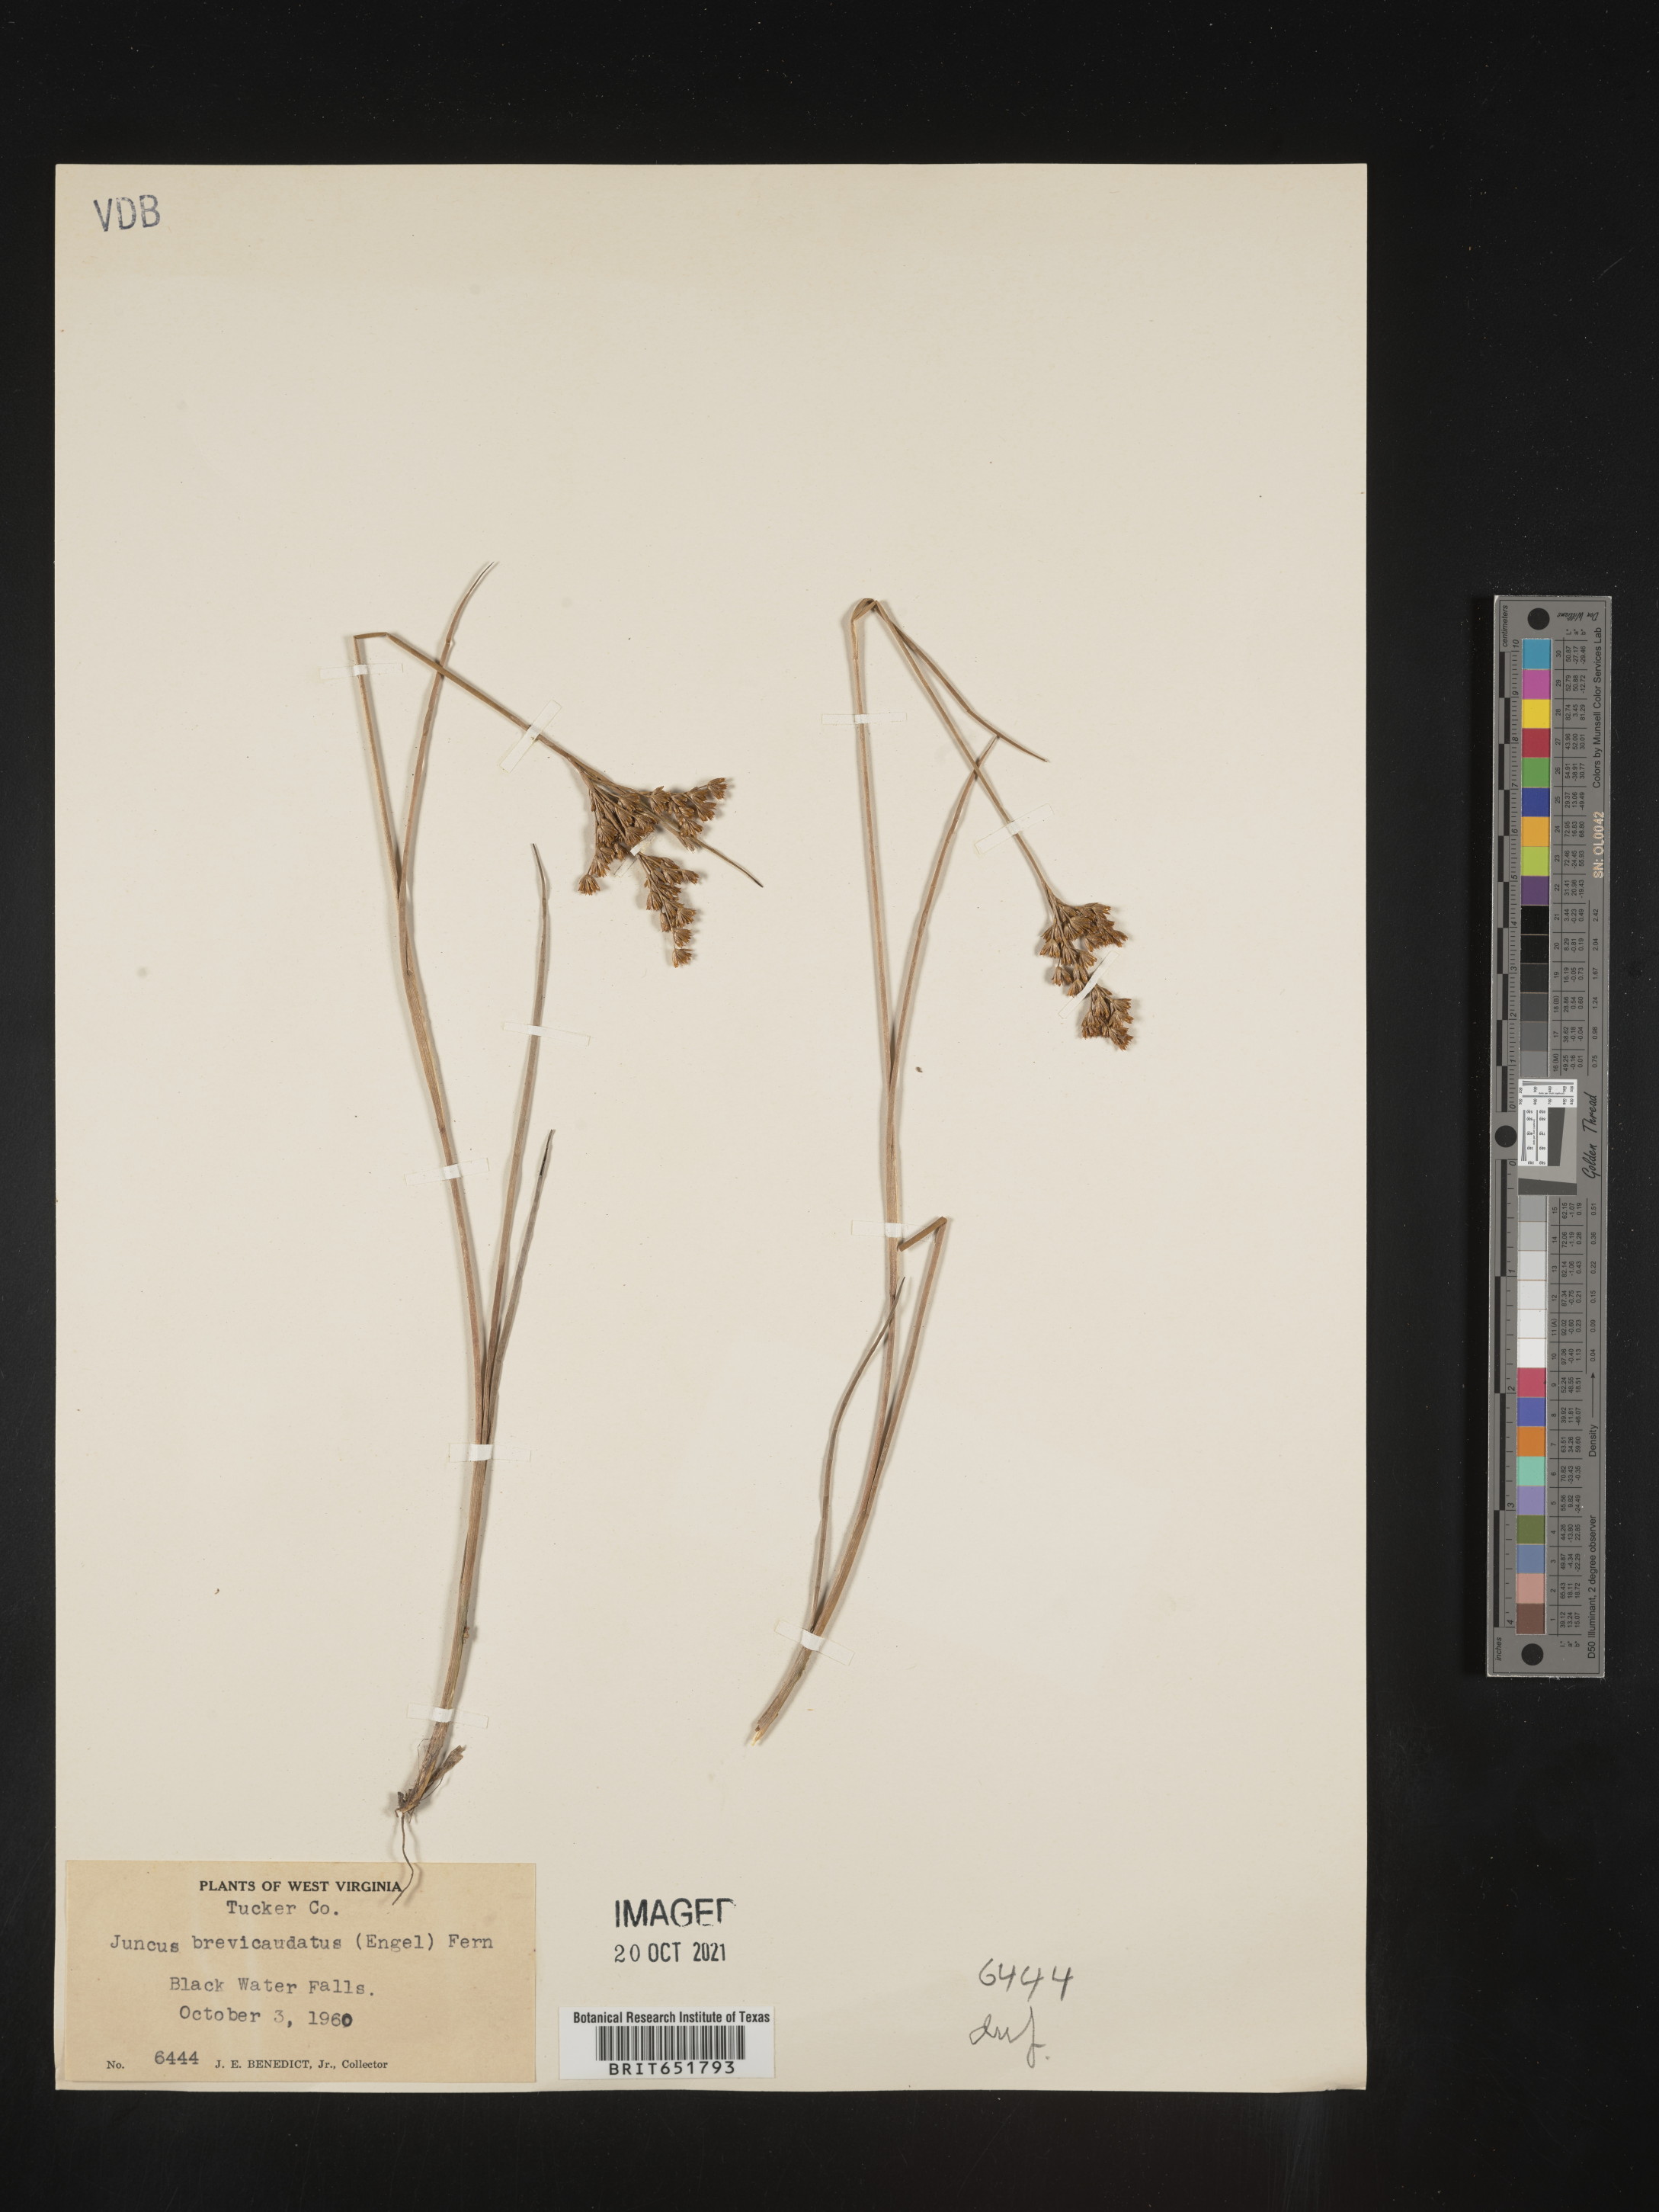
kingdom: Plantae
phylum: Tracheophyta
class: Liliopsida
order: Poales
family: Juncaceae
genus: Juncus
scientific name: Juncus brevicaudatus
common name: Narrow-panicle rush
